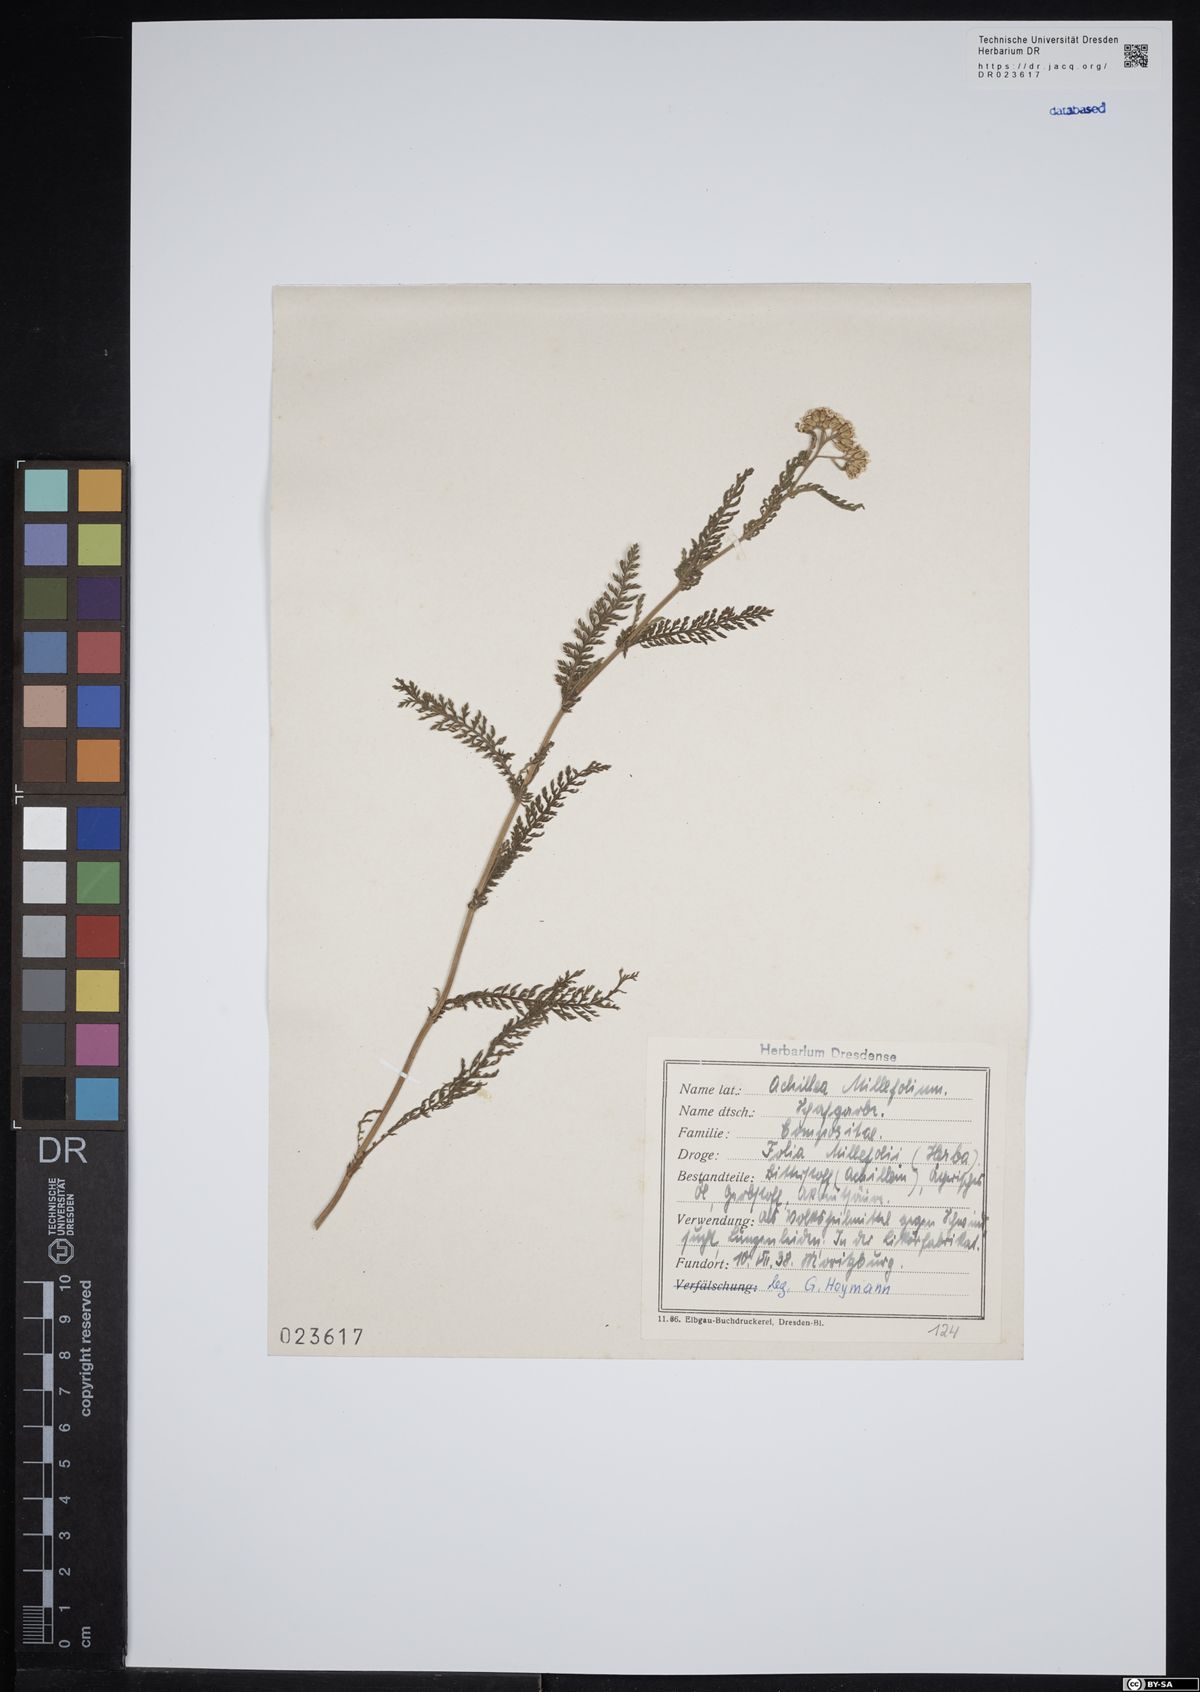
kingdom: Plantae
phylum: Tracheophyta
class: Magnoliopsida
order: Asterales
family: Asteraceae
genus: Achillea
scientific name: Achillea millefolium
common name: Yarrow
